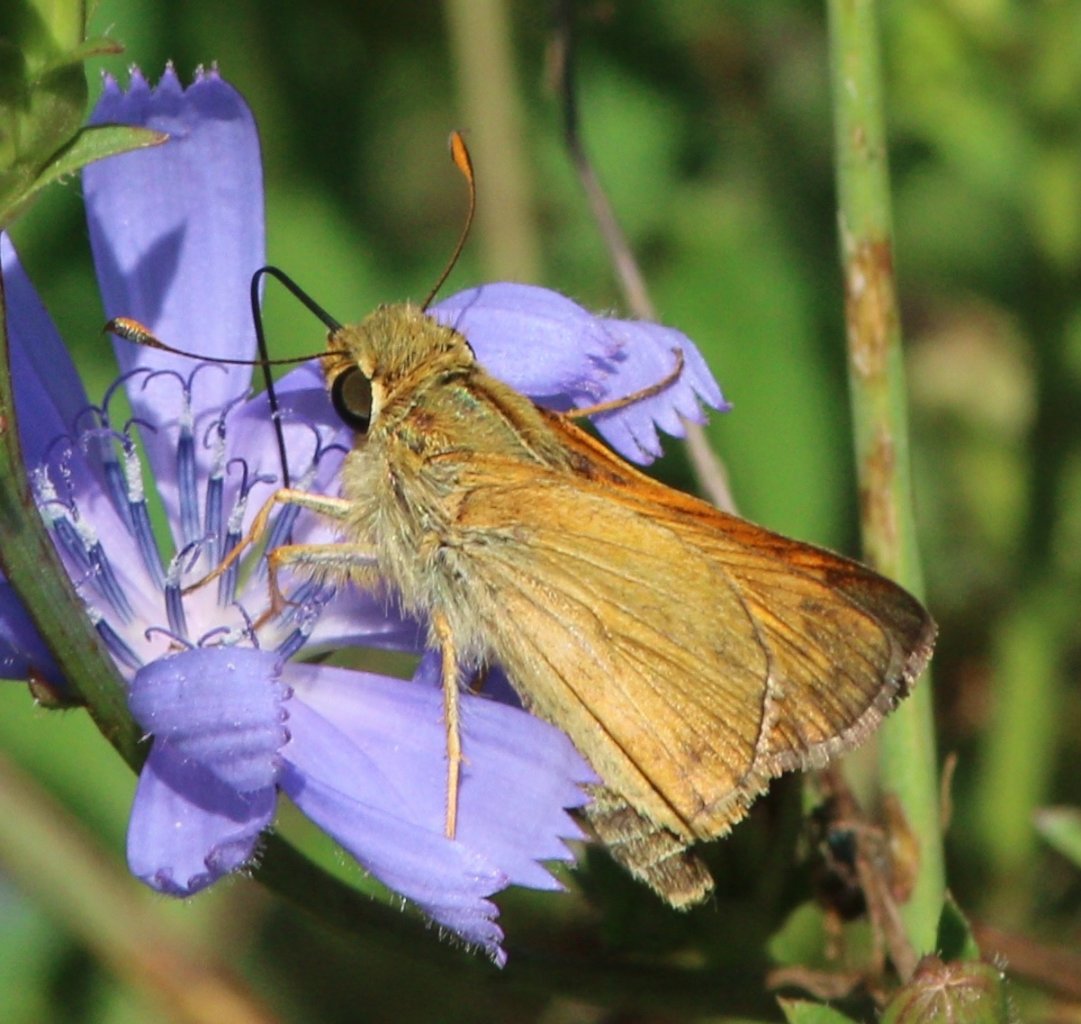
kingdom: Animalia
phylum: Arthropoda
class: Insecta
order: Lepidoptera
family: Hesperiidae
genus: Atalopedes
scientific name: Atalopedes campestris
